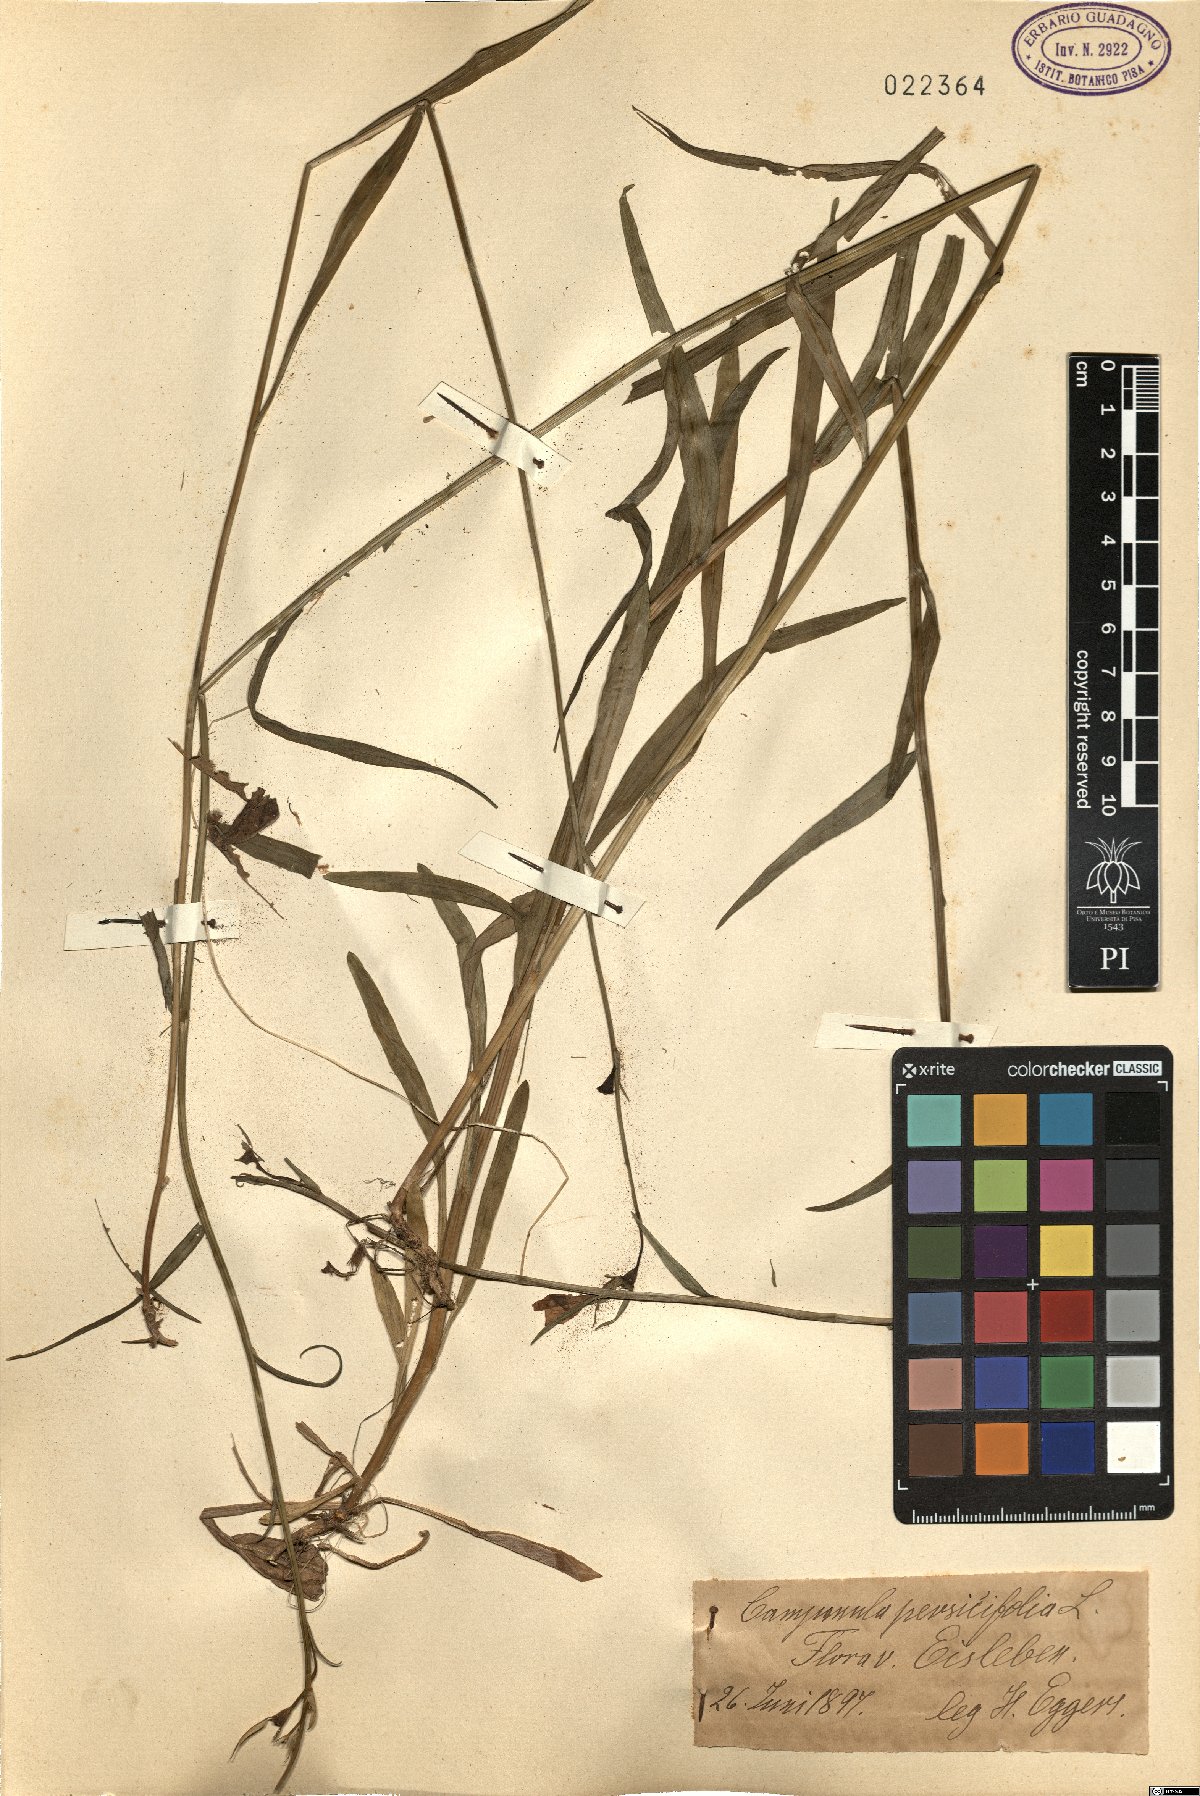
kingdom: Plantae
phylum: Tracheophyta
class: Magnoliopsida
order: Asterales
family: Campanulaceae
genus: Campanula
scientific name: Campanula persicifolia
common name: Peach-leaved bellflower
